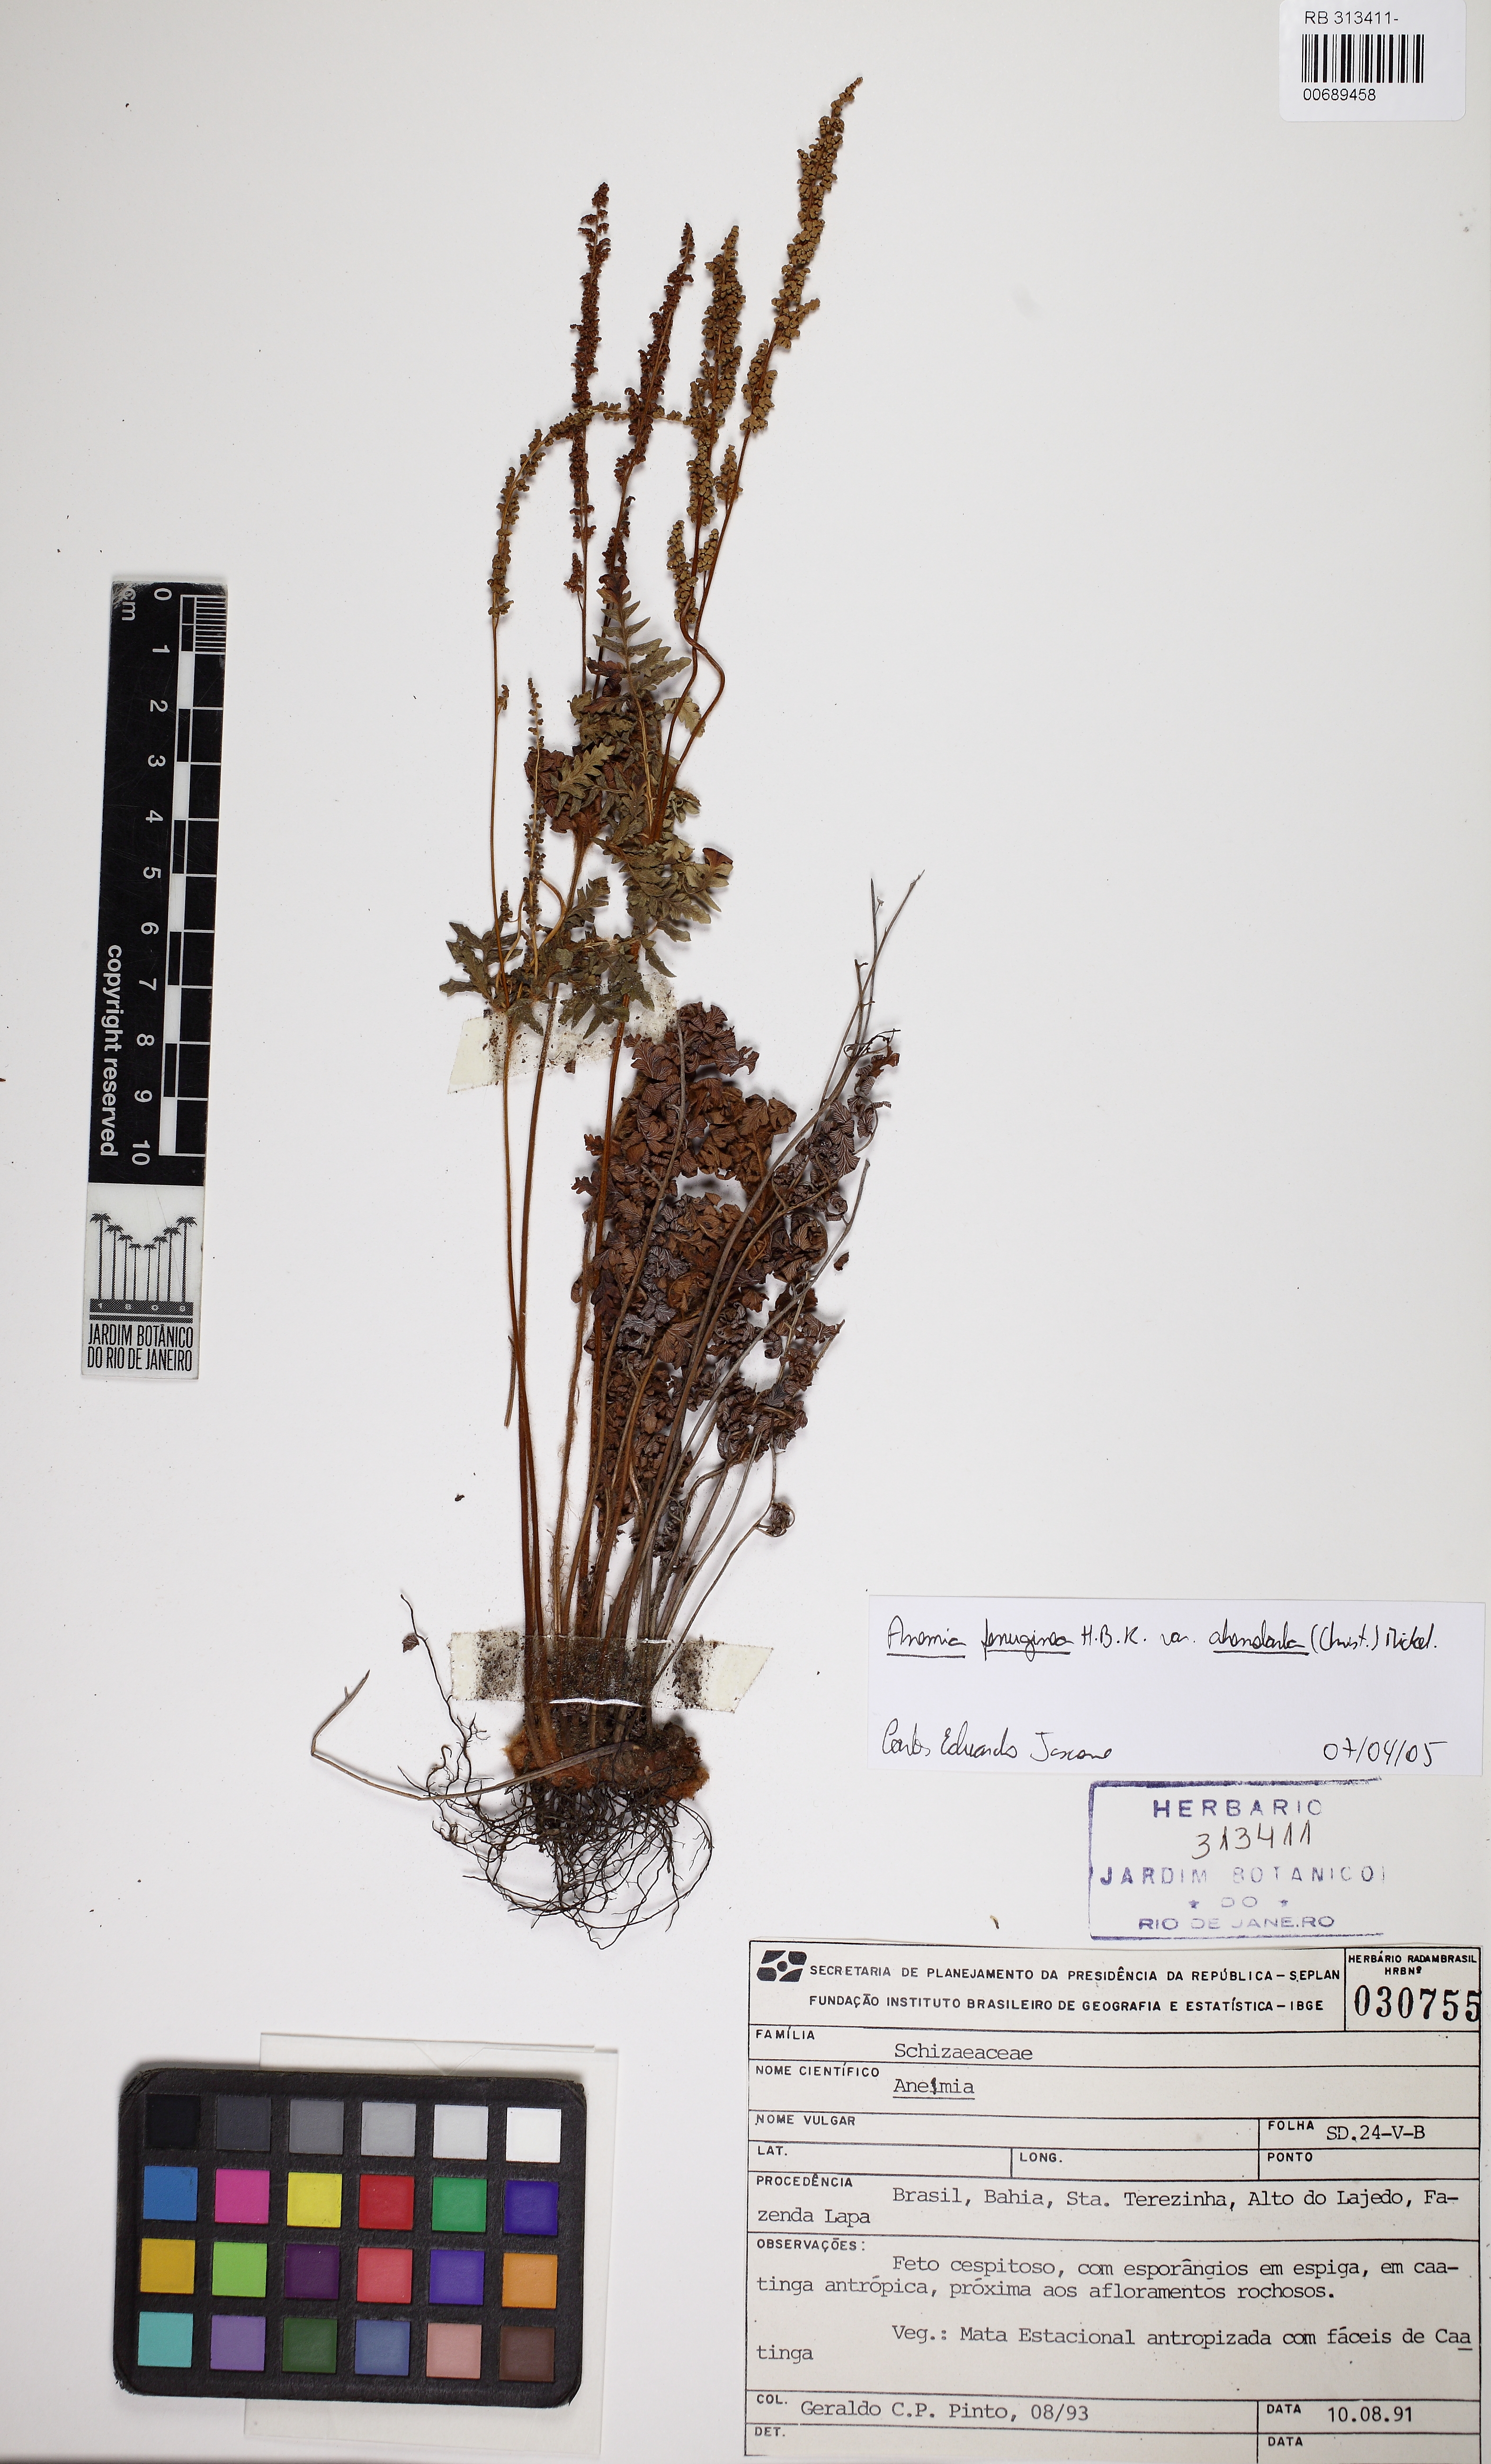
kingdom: Plantae
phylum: Tracheophyta
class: Polypodiopsida
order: Schizaeales
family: Anemiaceae
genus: Anemia
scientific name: Anemia ferruginea
